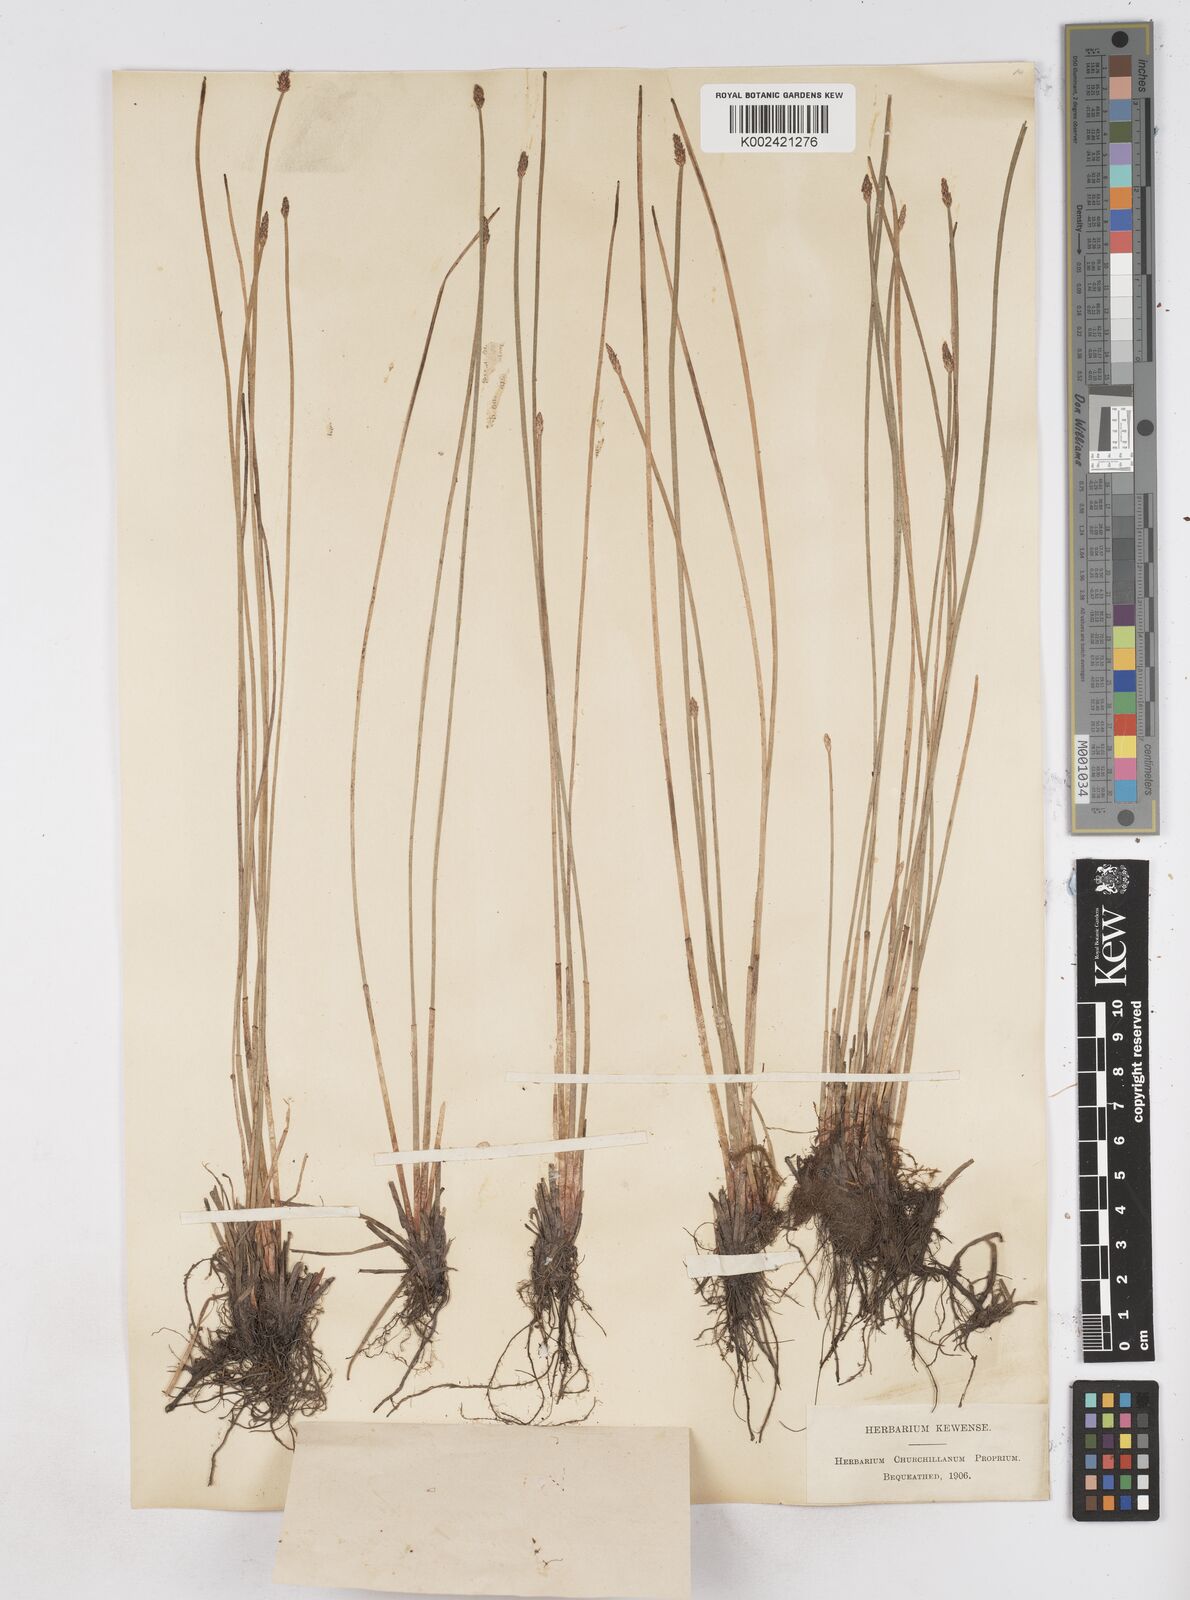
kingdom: Plantae
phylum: Tracheophyta
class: Liliopsida
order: Poales
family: Cyperaceae
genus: Eleocharis
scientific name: Eleocharis palustris
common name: Common spike-rush
